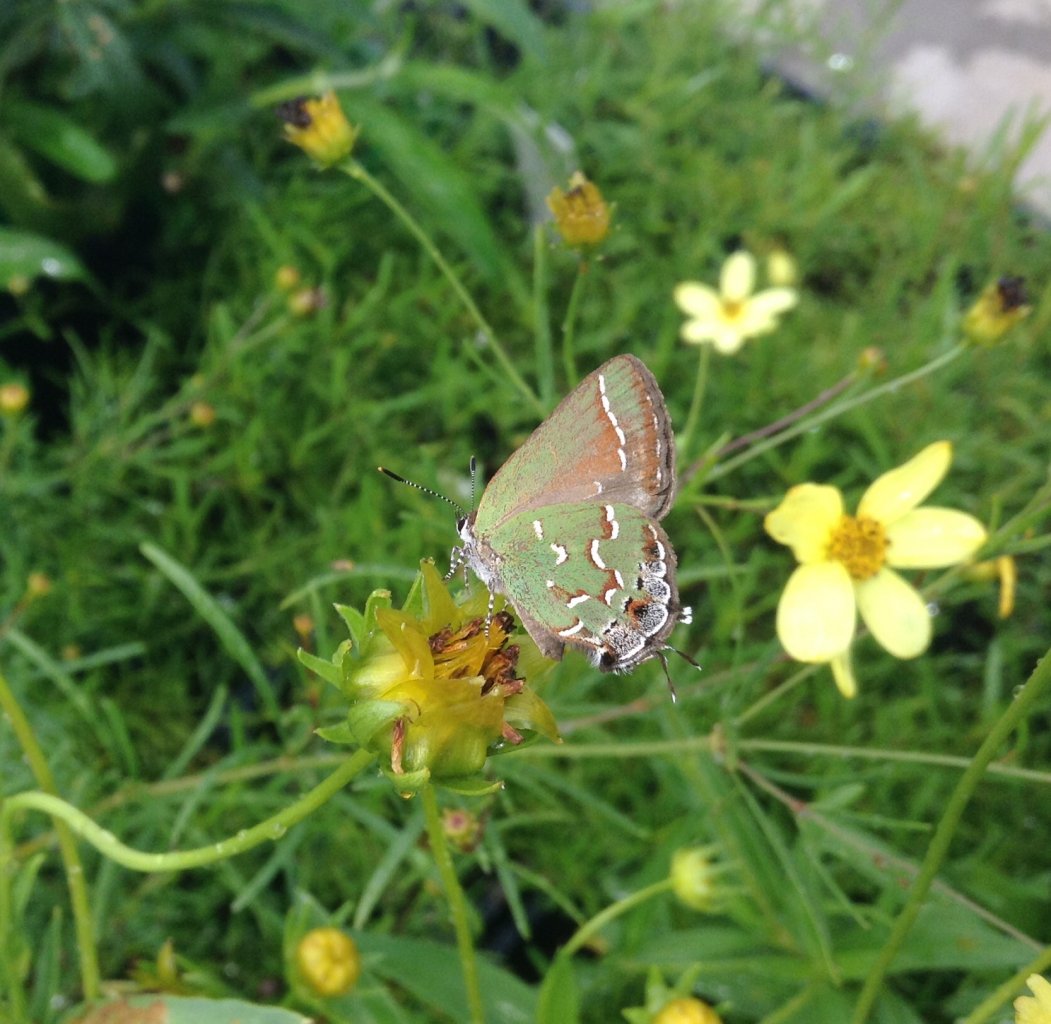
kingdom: Animalia
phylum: Arthropoda
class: Insecta
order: Lepidoptera
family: Lycaenidae
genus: Mitoura
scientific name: Mitoura gryneus
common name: Juniper Hairstreak
